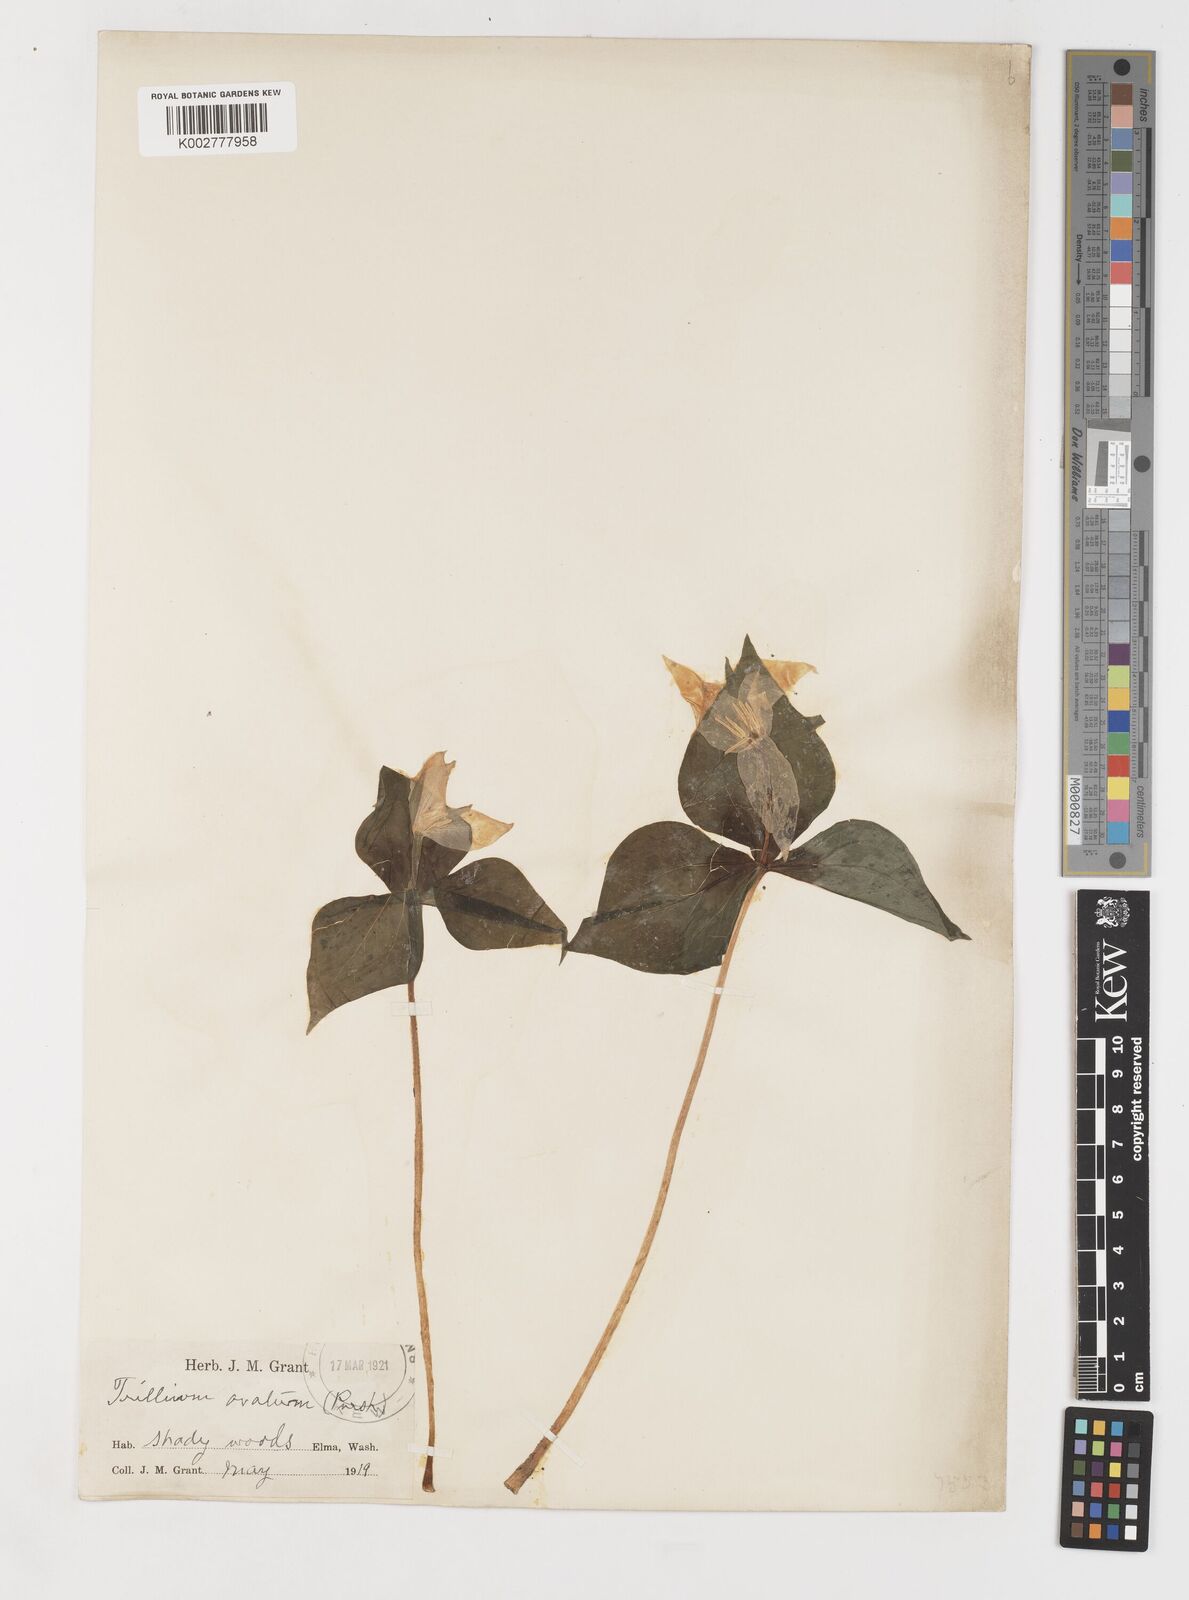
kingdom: Plantae
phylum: Tracheophyta
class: Liliopsida
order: Liliales
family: Melanthiaceae
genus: Trillium
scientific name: Trillium ovatum
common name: Pacific trillium
